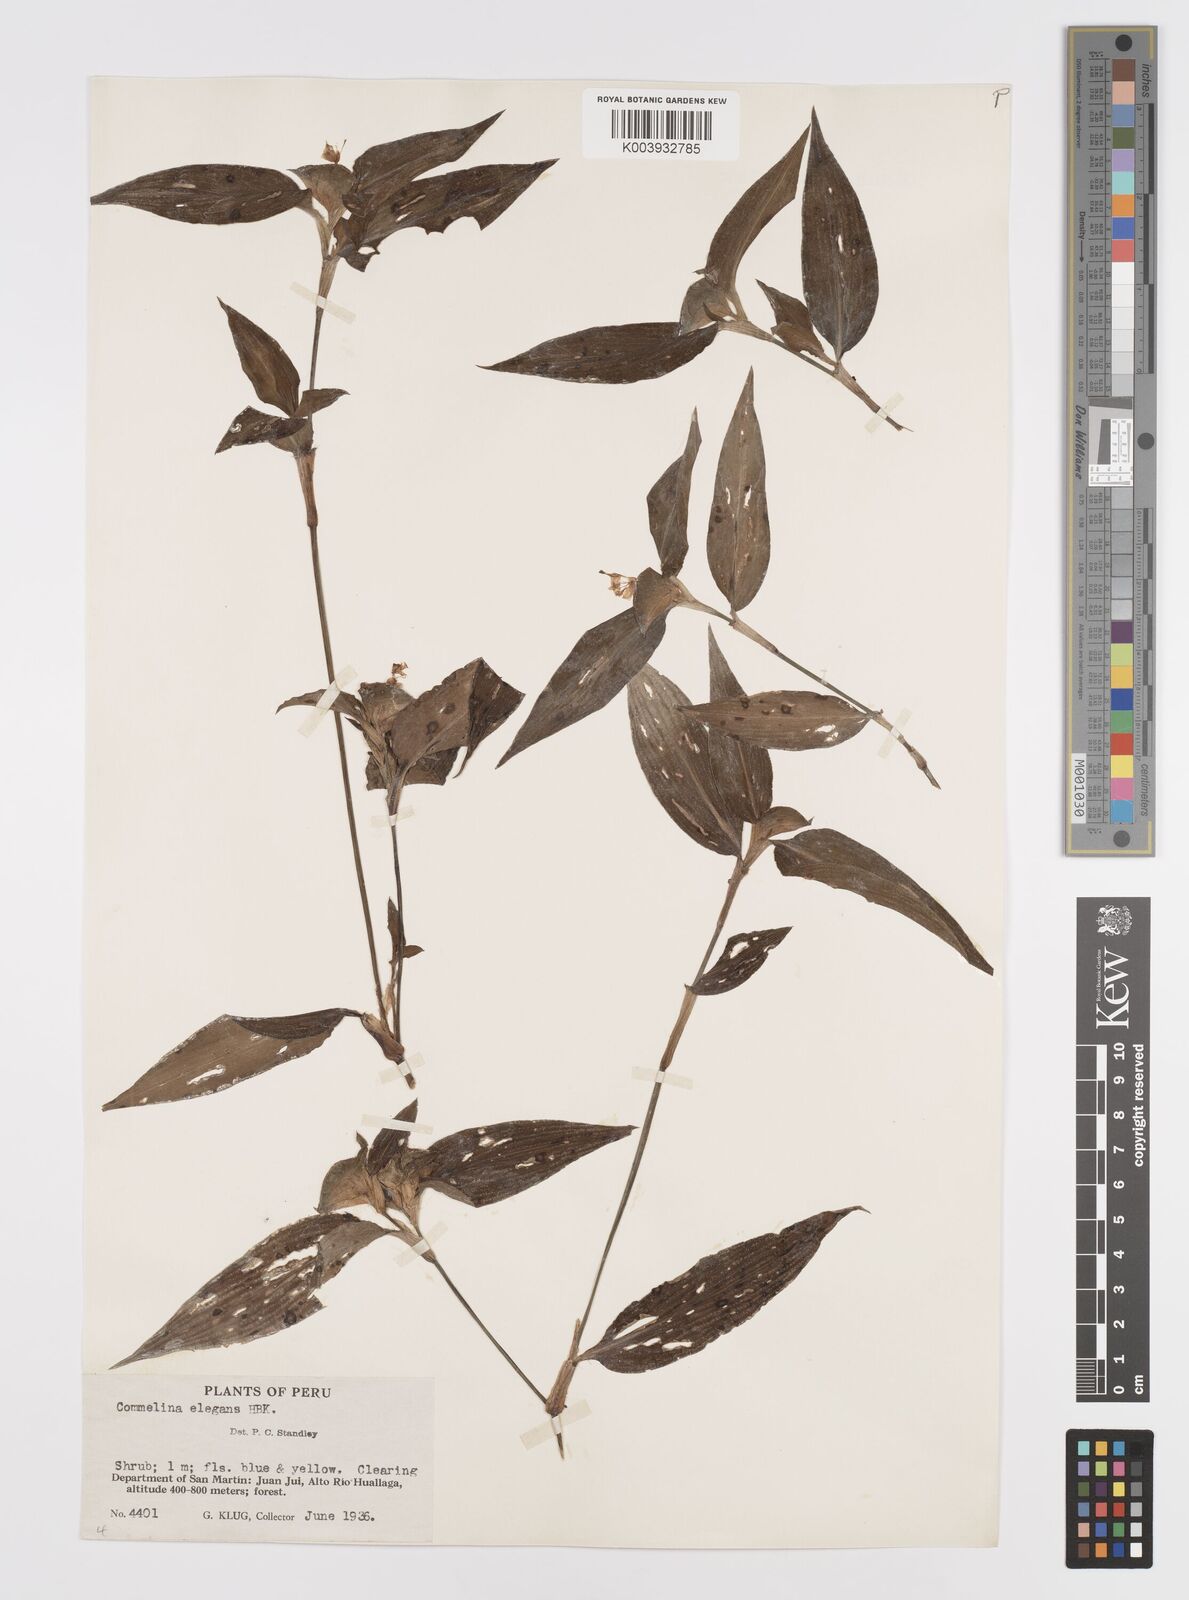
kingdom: Plantae
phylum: Tracheophyta
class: Liliopsida
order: Commelinales
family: Commelinaceae
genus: Commelina
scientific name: Commelina virginica
